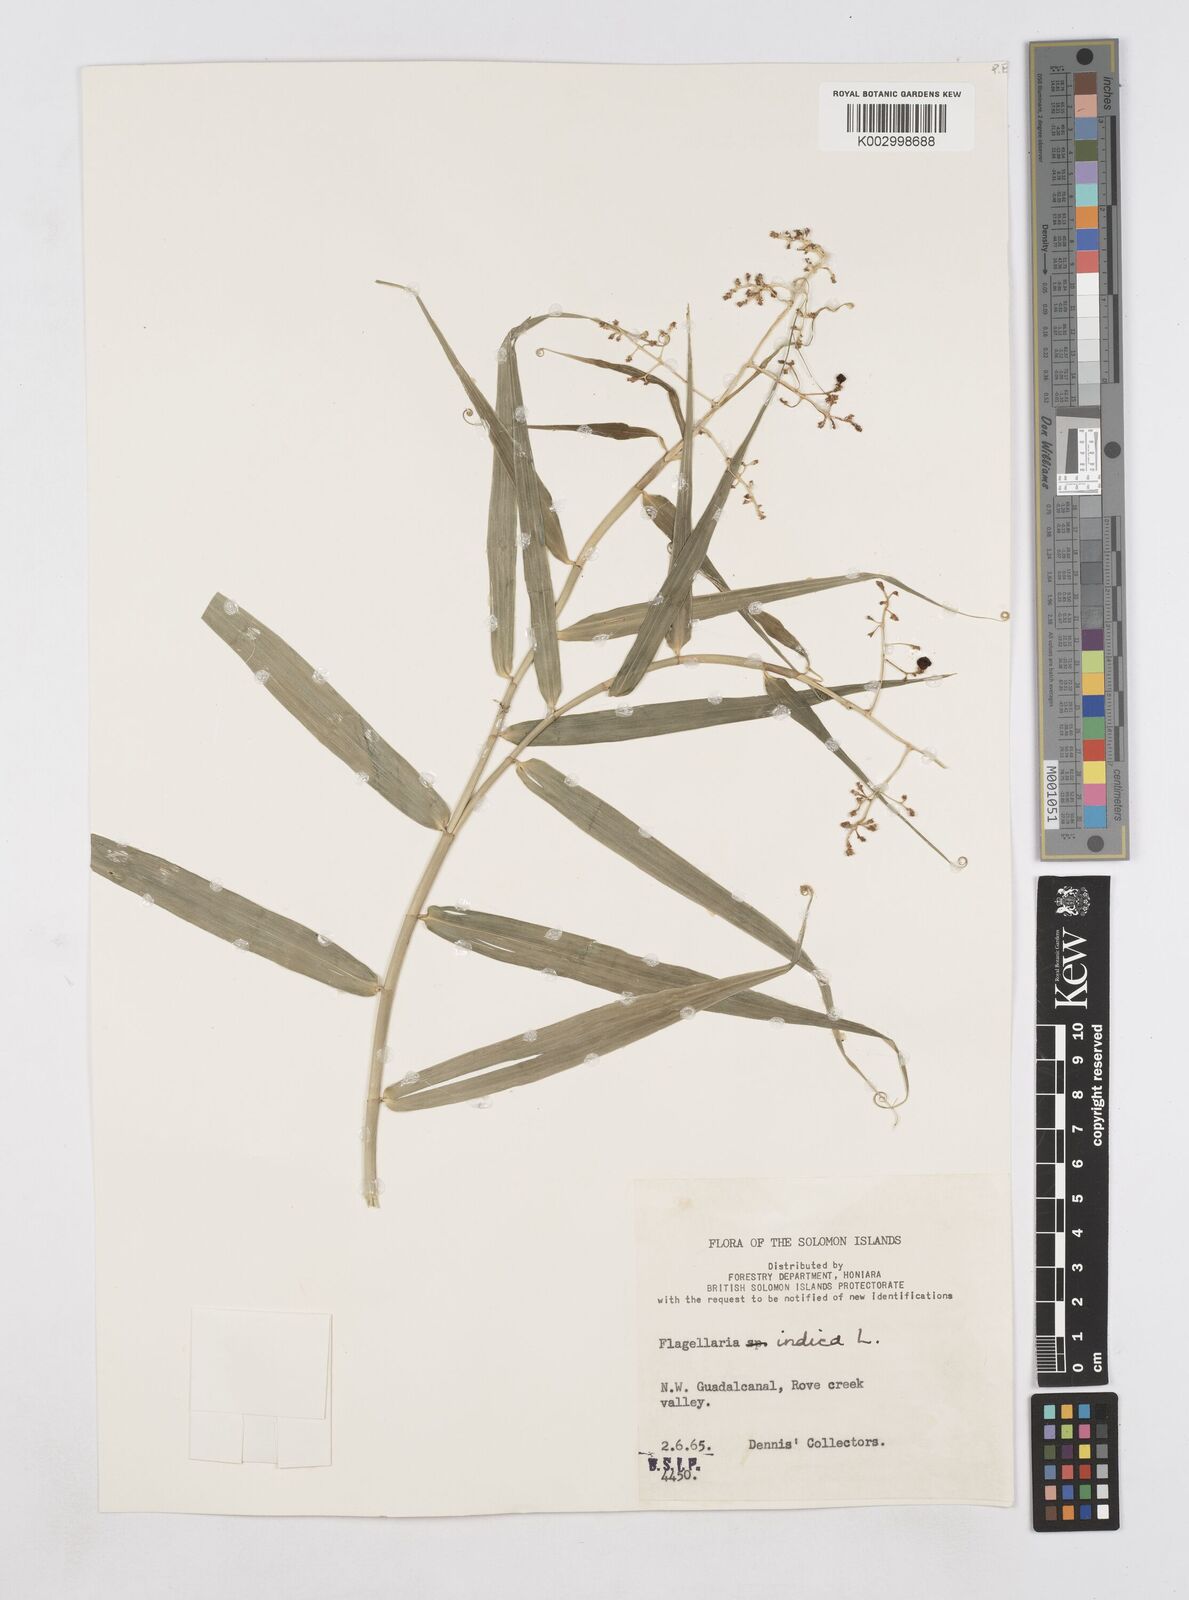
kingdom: Plantae
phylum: Tracheophyta
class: Liliopsida
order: Poales
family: Flagellariaceae
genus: Flagellaria
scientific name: Flagellaria indica
